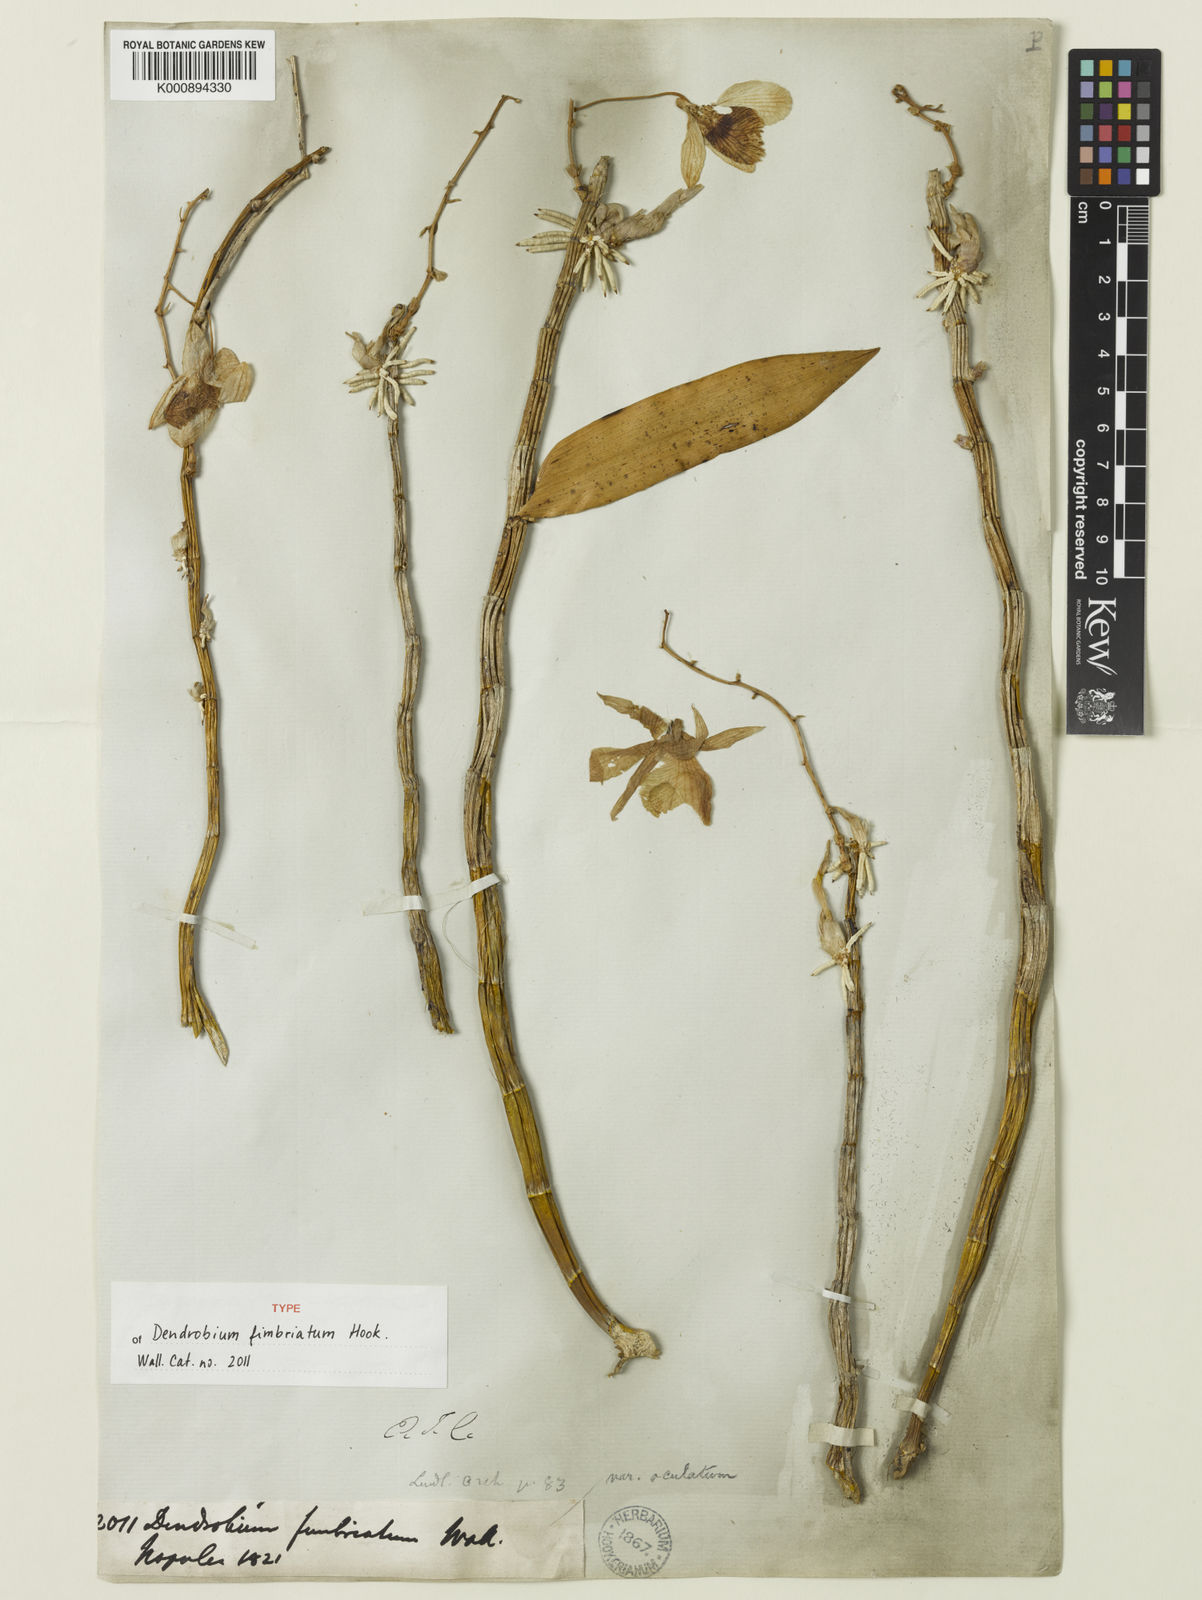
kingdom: Plantae
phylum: Tracheophyta
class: Liliopsida
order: Asparagales
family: Orchidaceae
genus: Dendrobium
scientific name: Dendrobium fimbriatum
